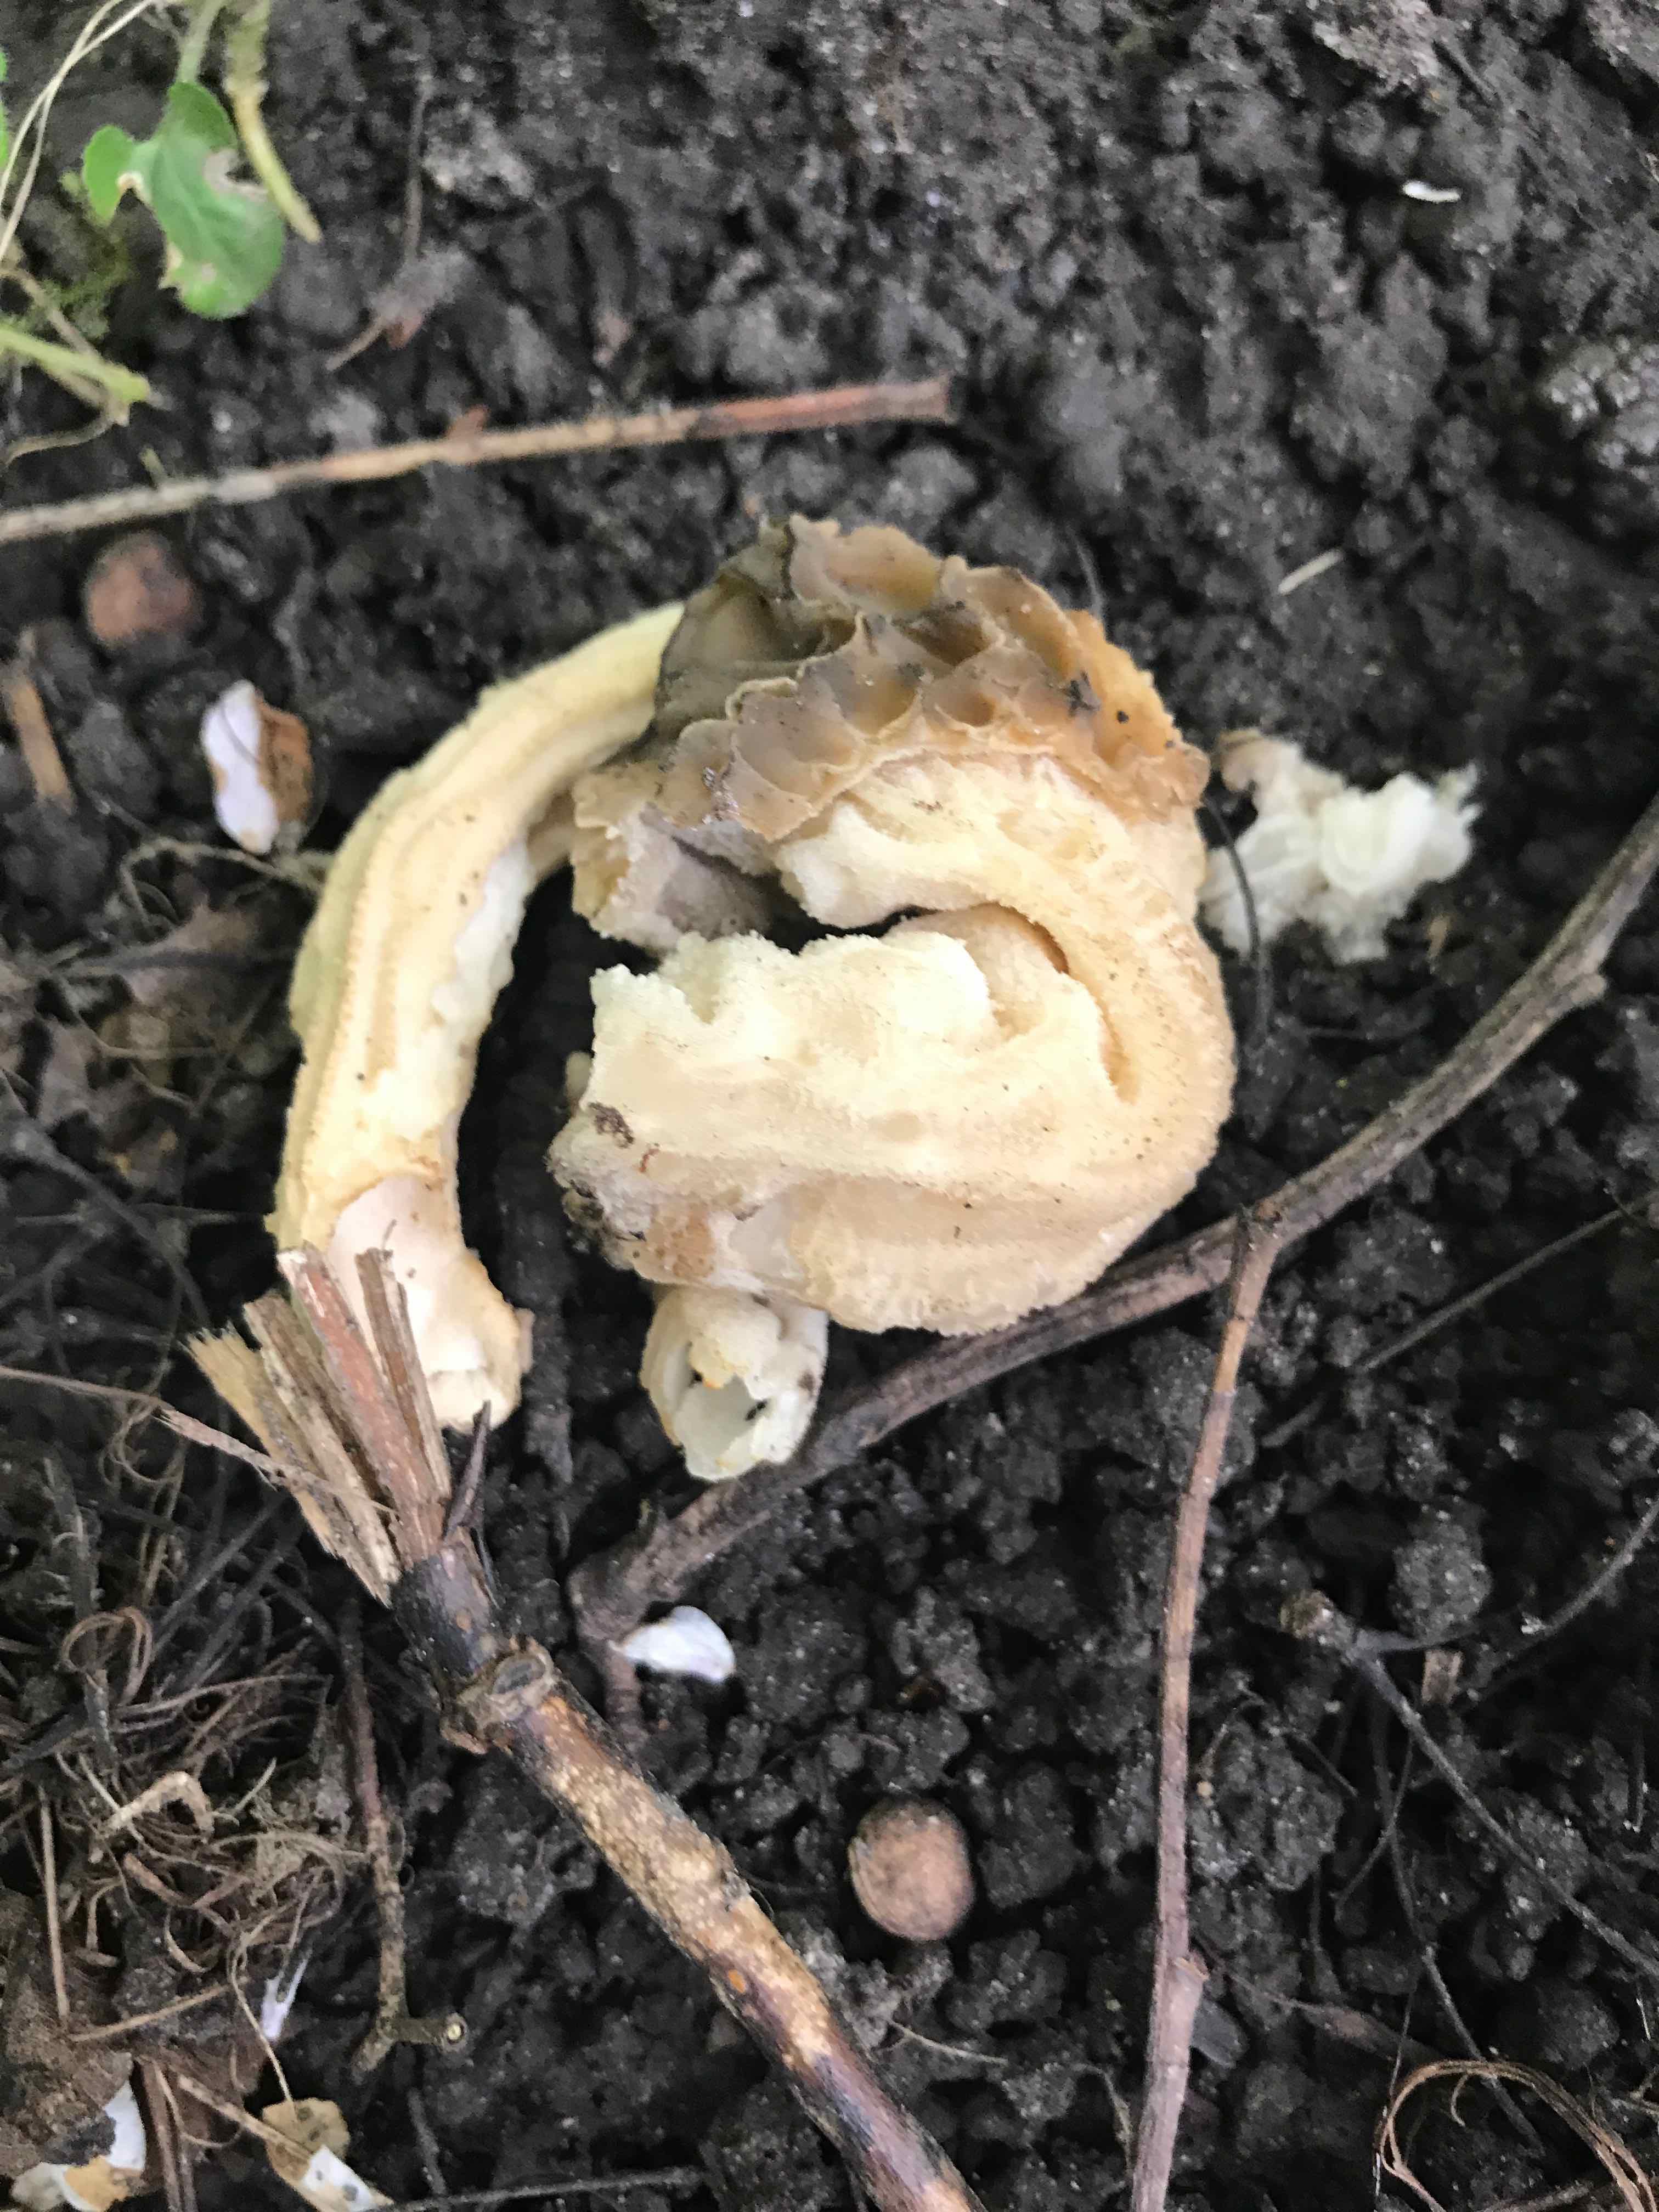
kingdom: Fungi
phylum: Ascomycota
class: Pezizomycetes
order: Pezizales
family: Morchellaceae
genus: Morchella
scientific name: Morchella semilibera
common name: hætte-morkel
